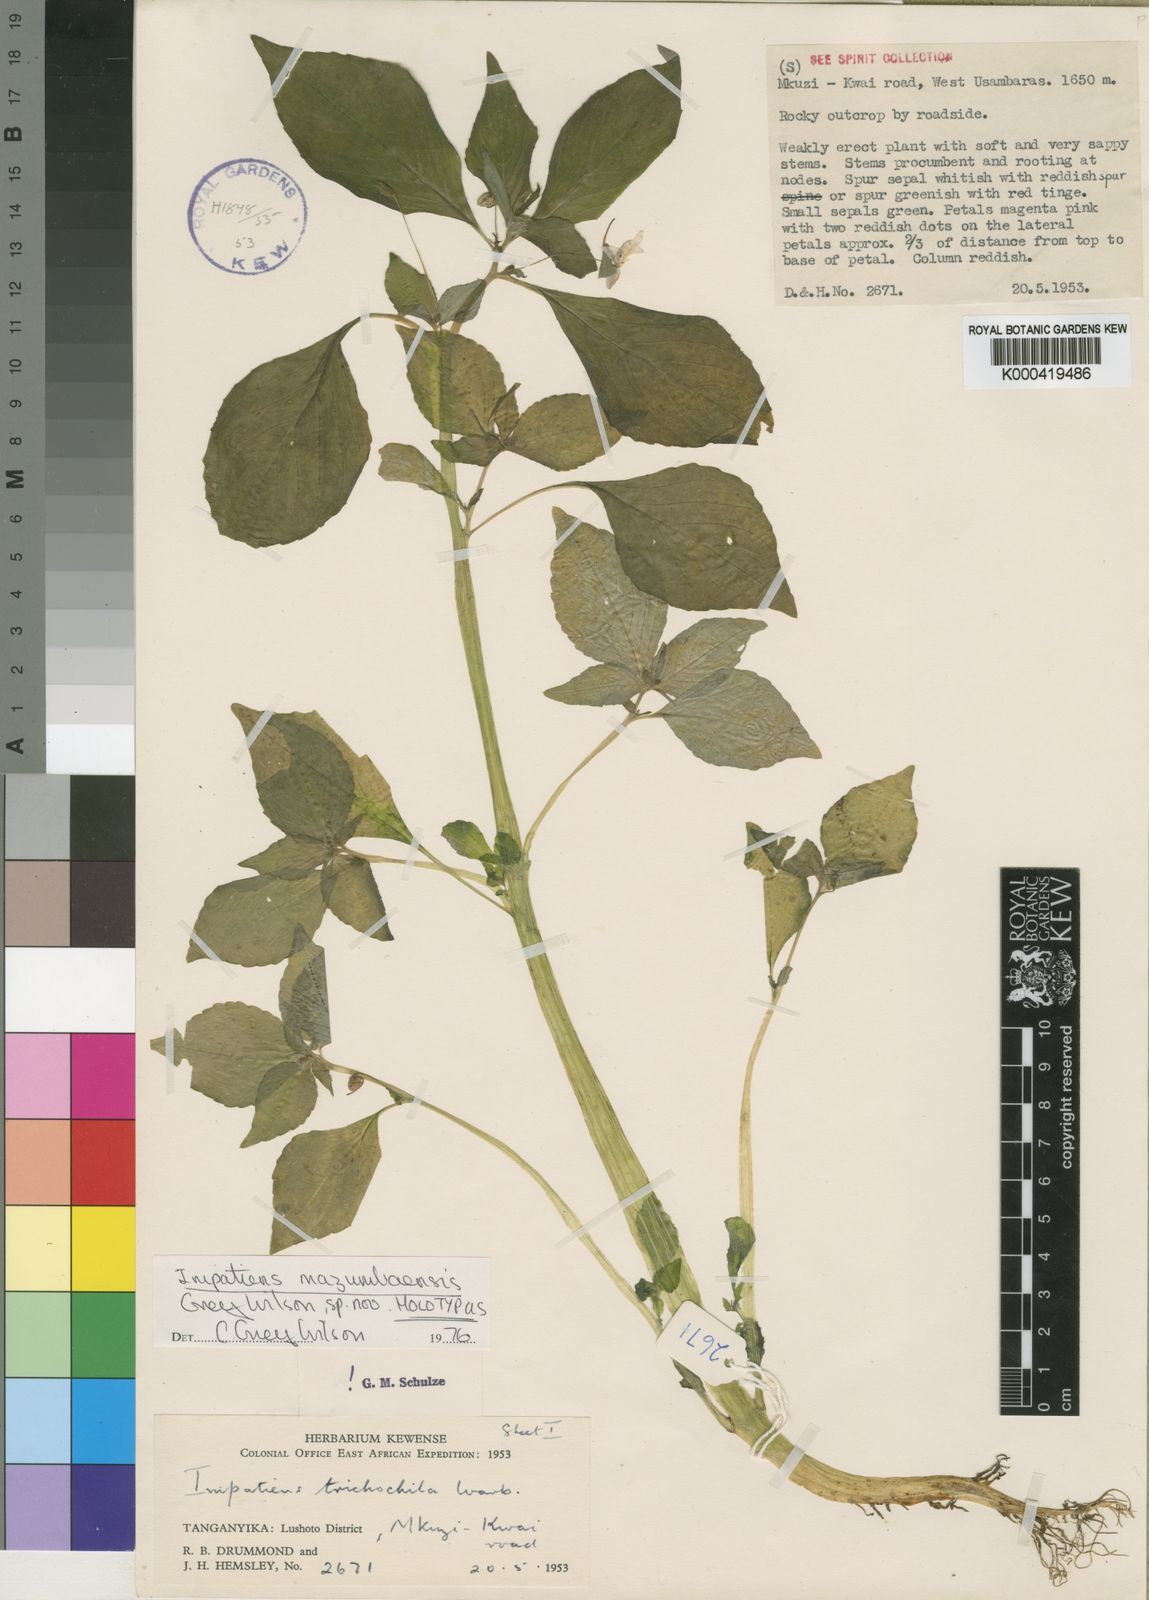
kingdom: Plantae
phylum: Tracheophyta
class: Magnoliopsida
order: Ericales
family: Balsaminaceae
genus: Impatiens
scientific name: Impatiens mazumbaiensis
